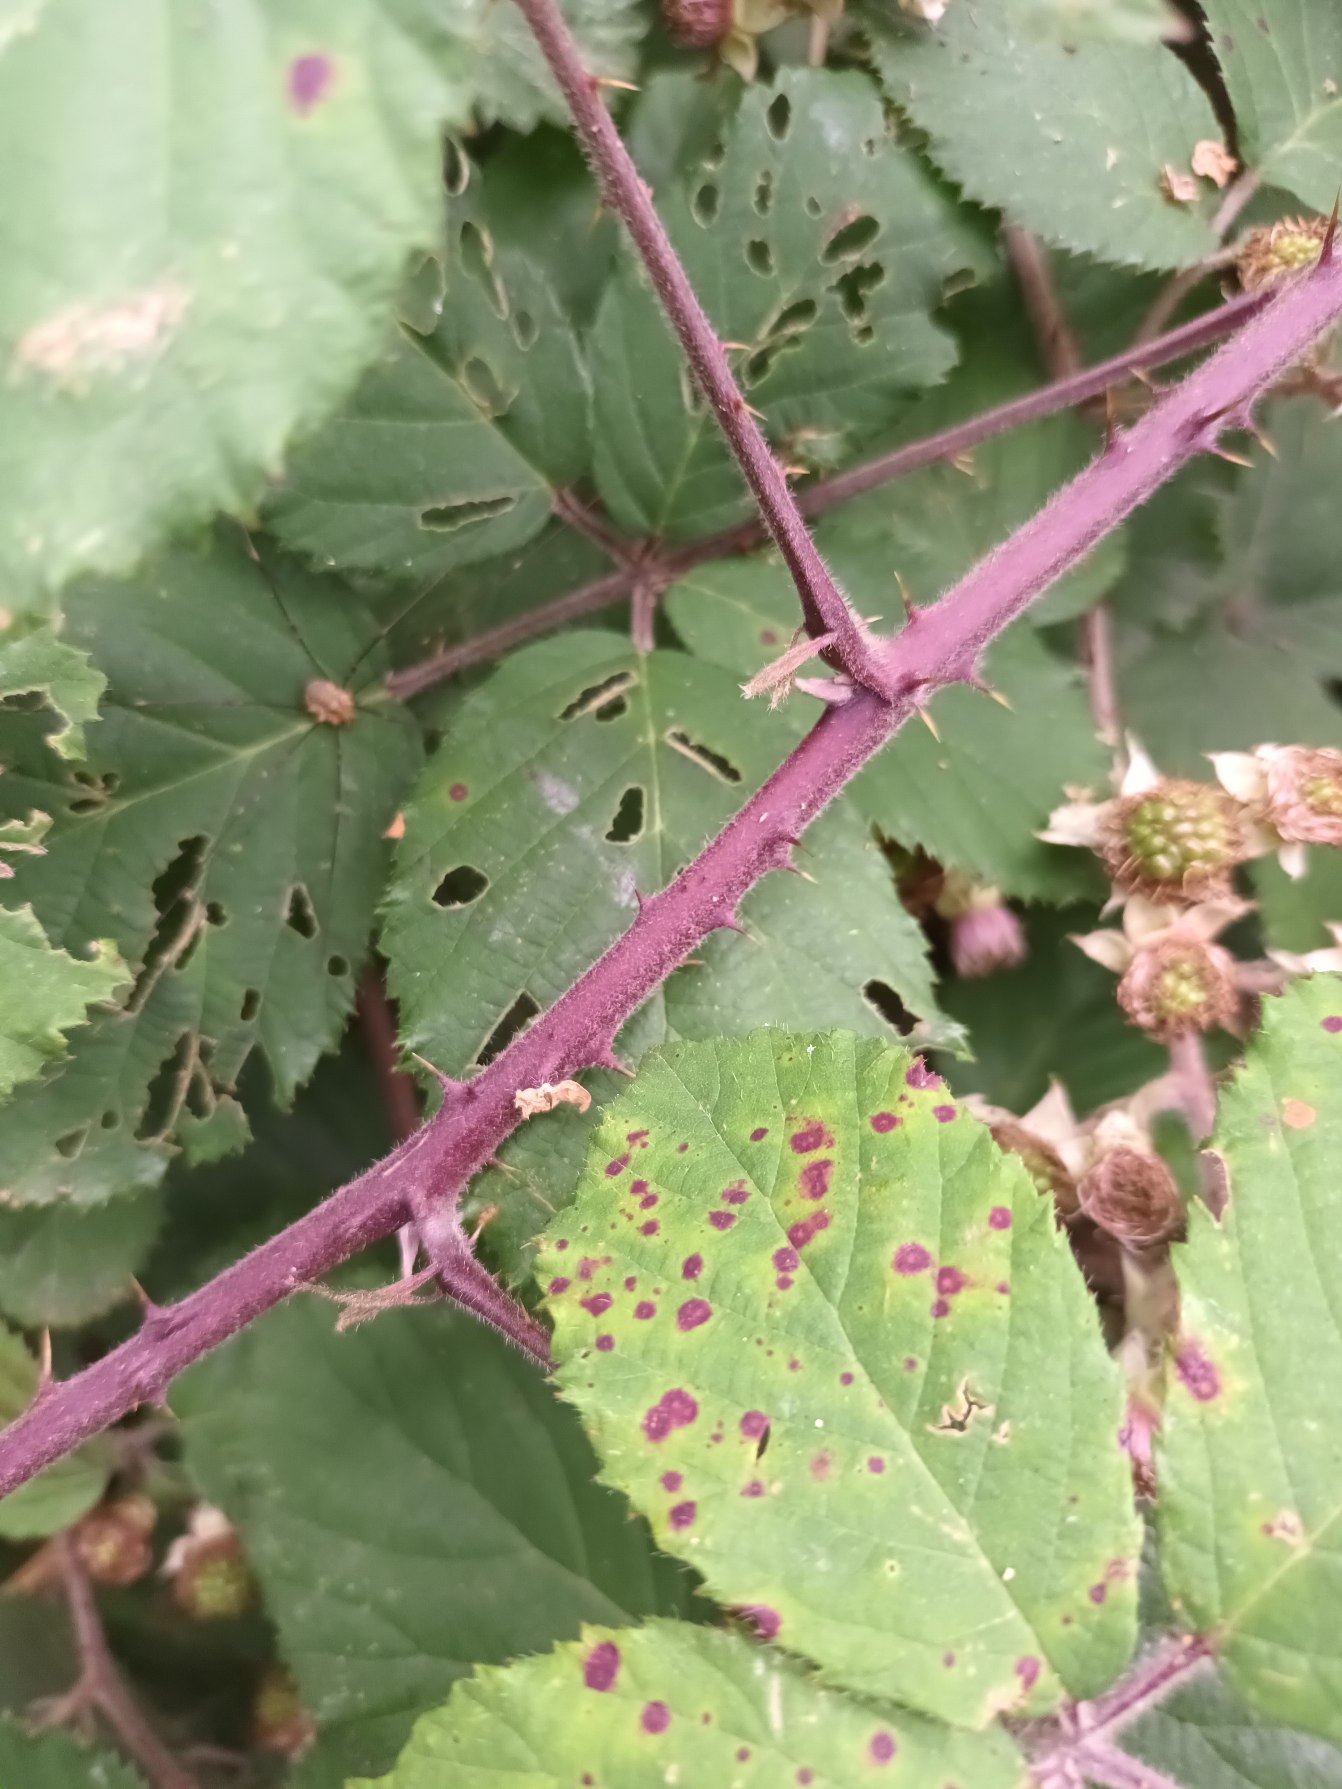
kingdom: Plantae
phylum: Tracheophyta
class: Magnoliopsida
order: Rosales
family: Rosaceae
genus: Rubus
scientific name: Rubus vestitus
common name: Rundbladet brombær
